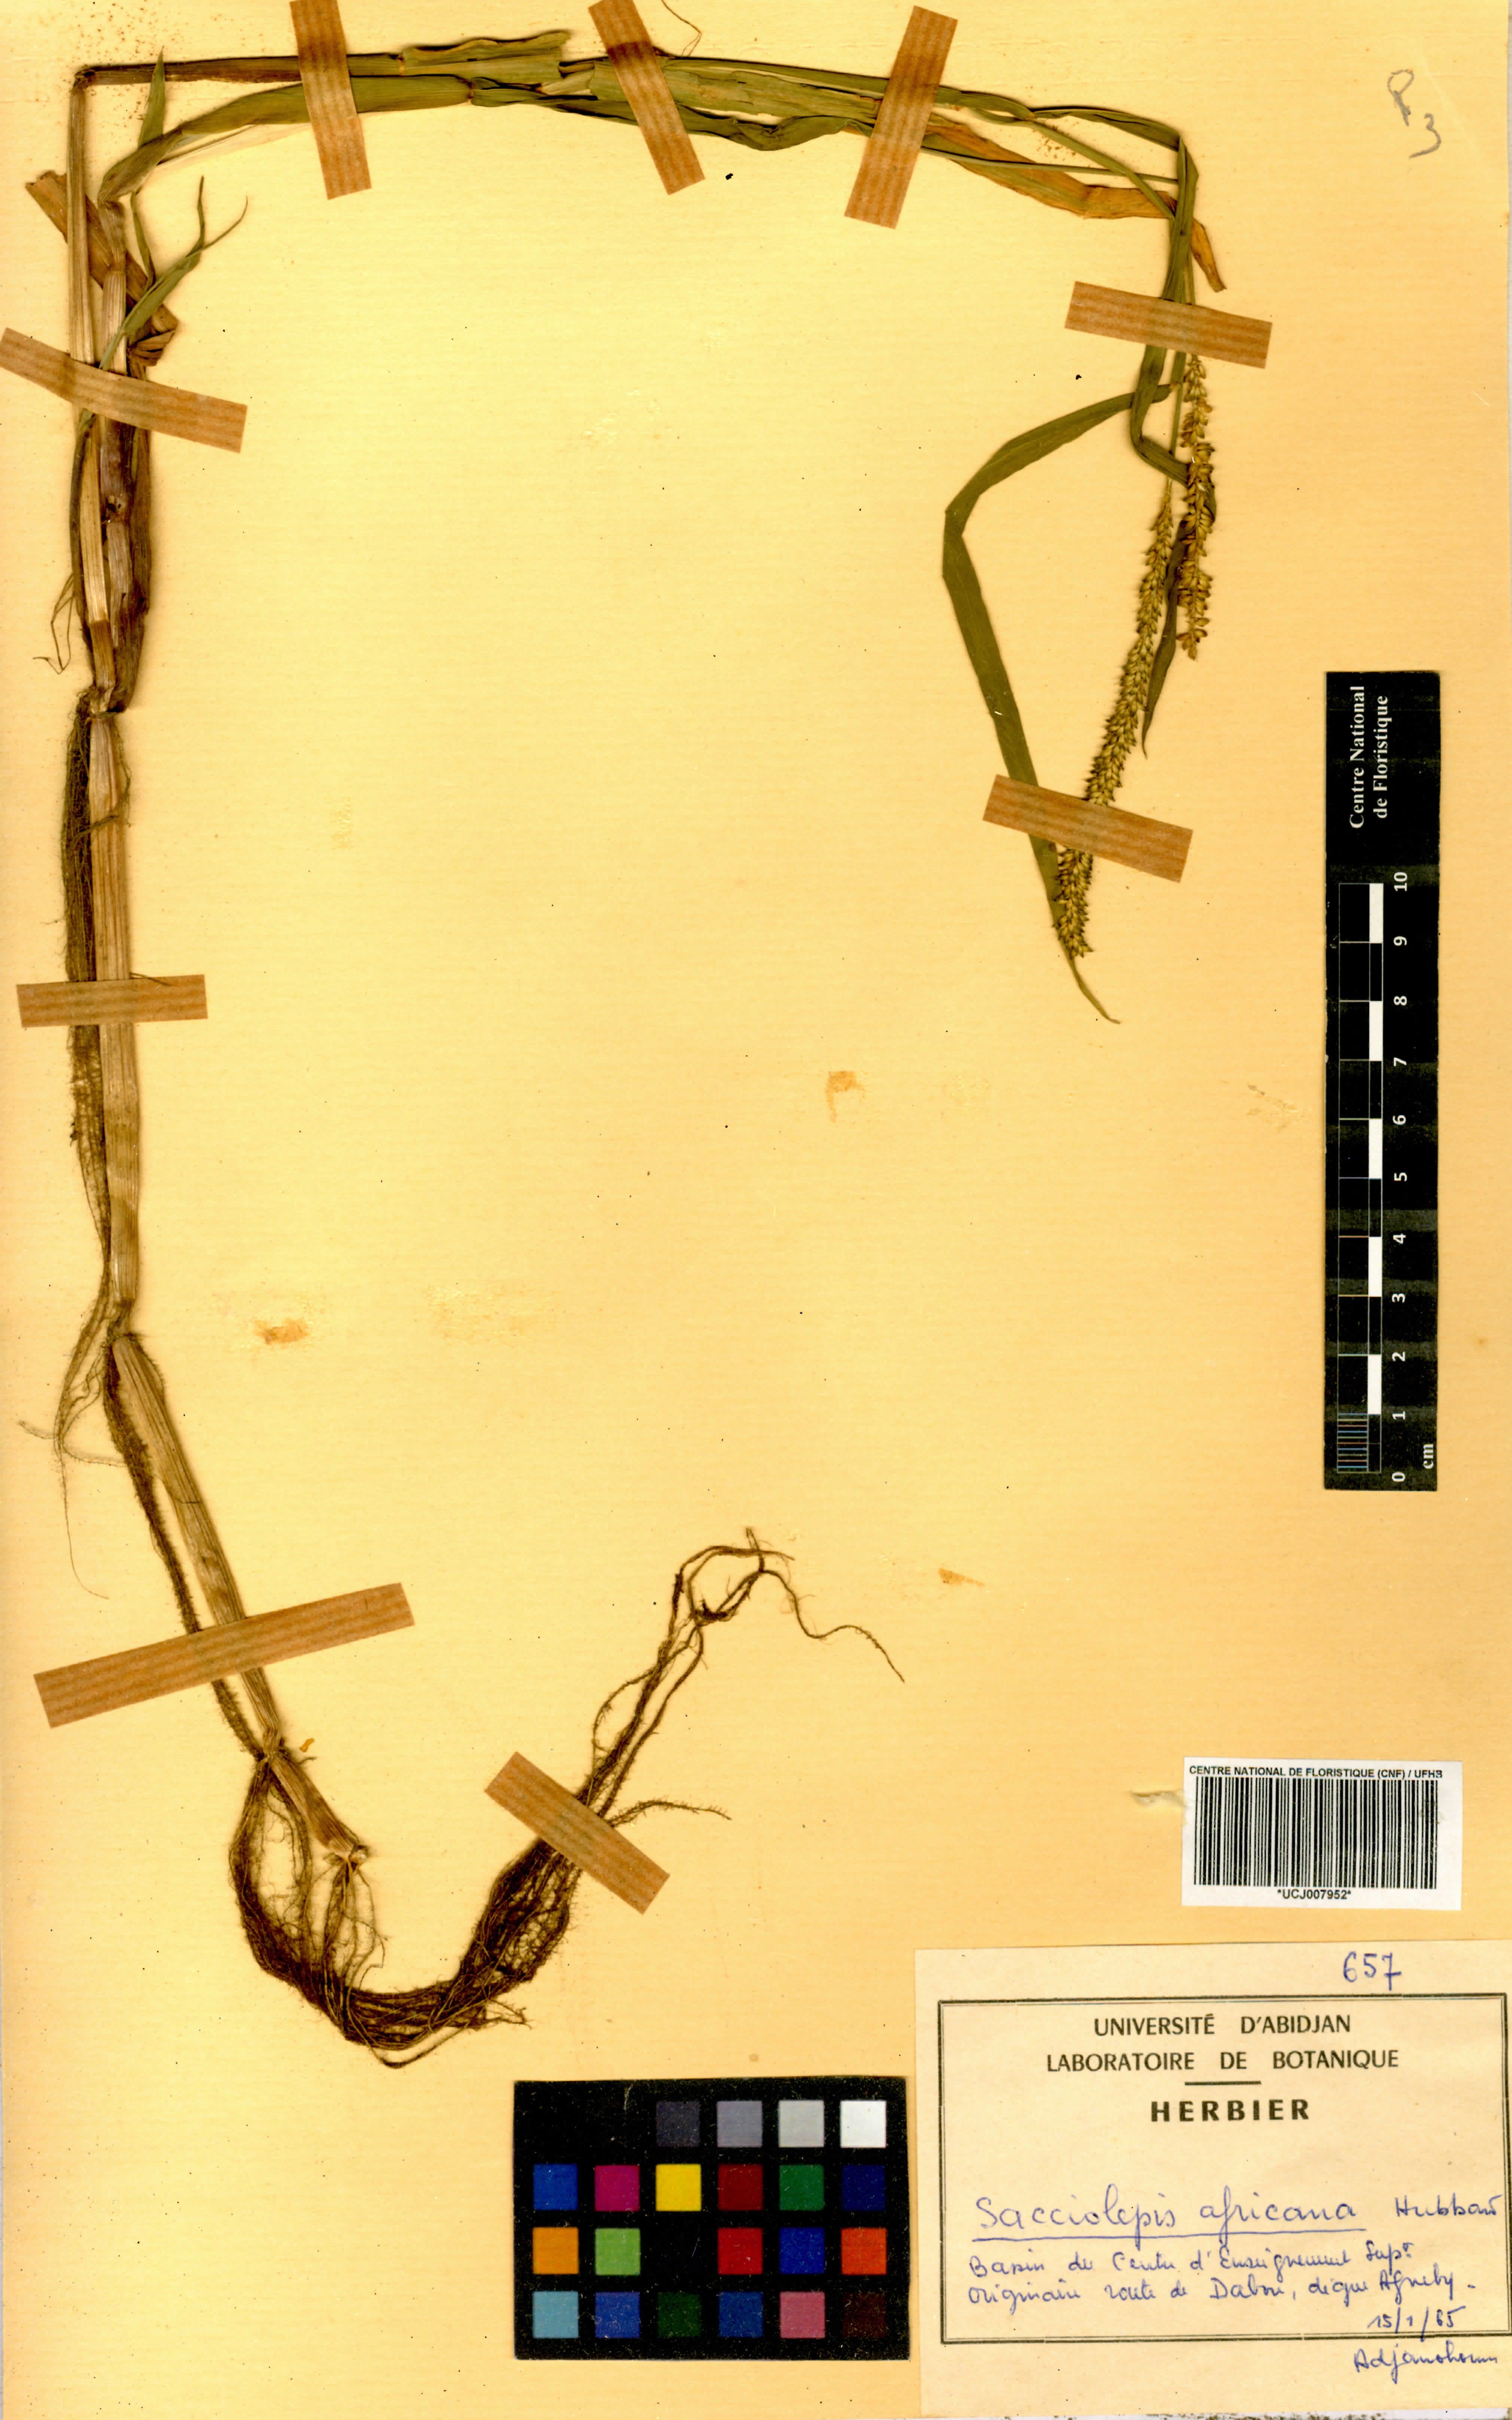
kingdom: Plantae
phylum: Tracheophyta
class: Liliopsida
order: Poales
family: Poaceae
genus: Sacciolepis
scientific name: Sacciolepis africana
